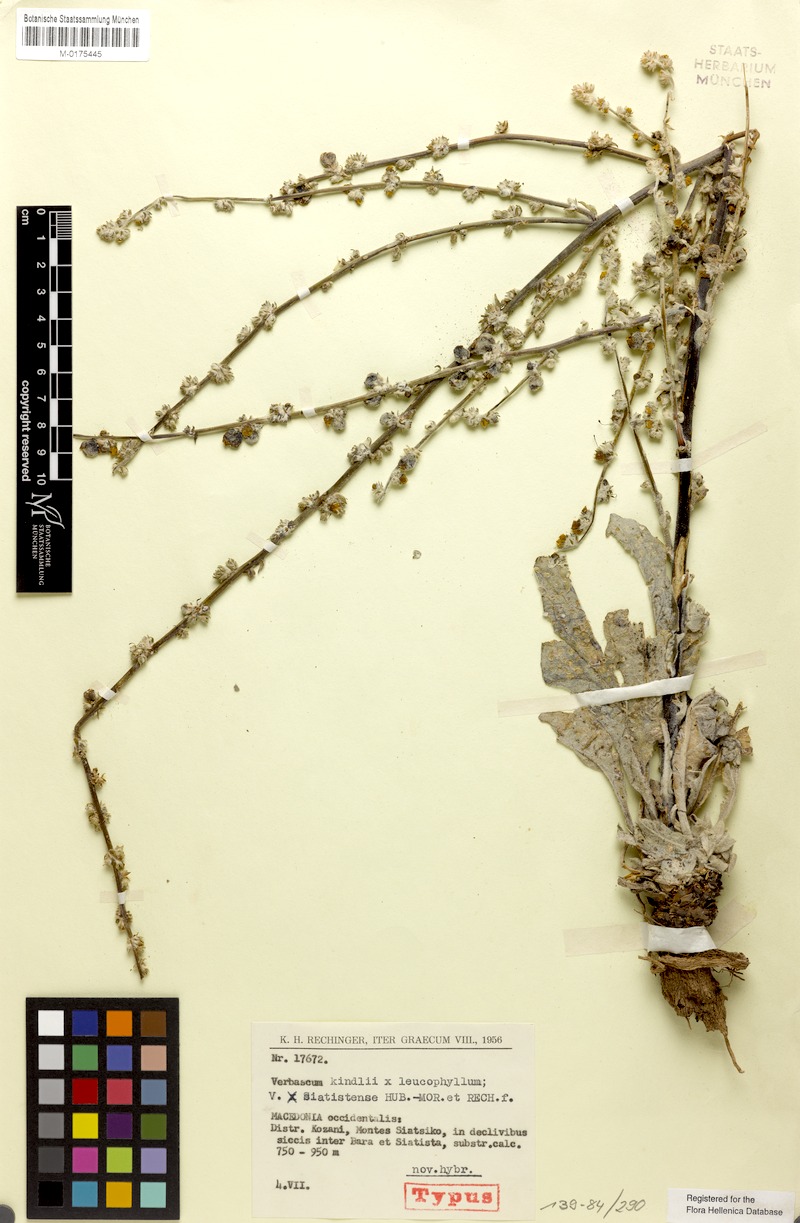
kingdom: Plantae
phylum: Tracheophyta
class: Magnoliopsida
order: Lamiales
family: Scrophulariaceae
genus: Verbascum
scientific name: Verbascum siatistense
